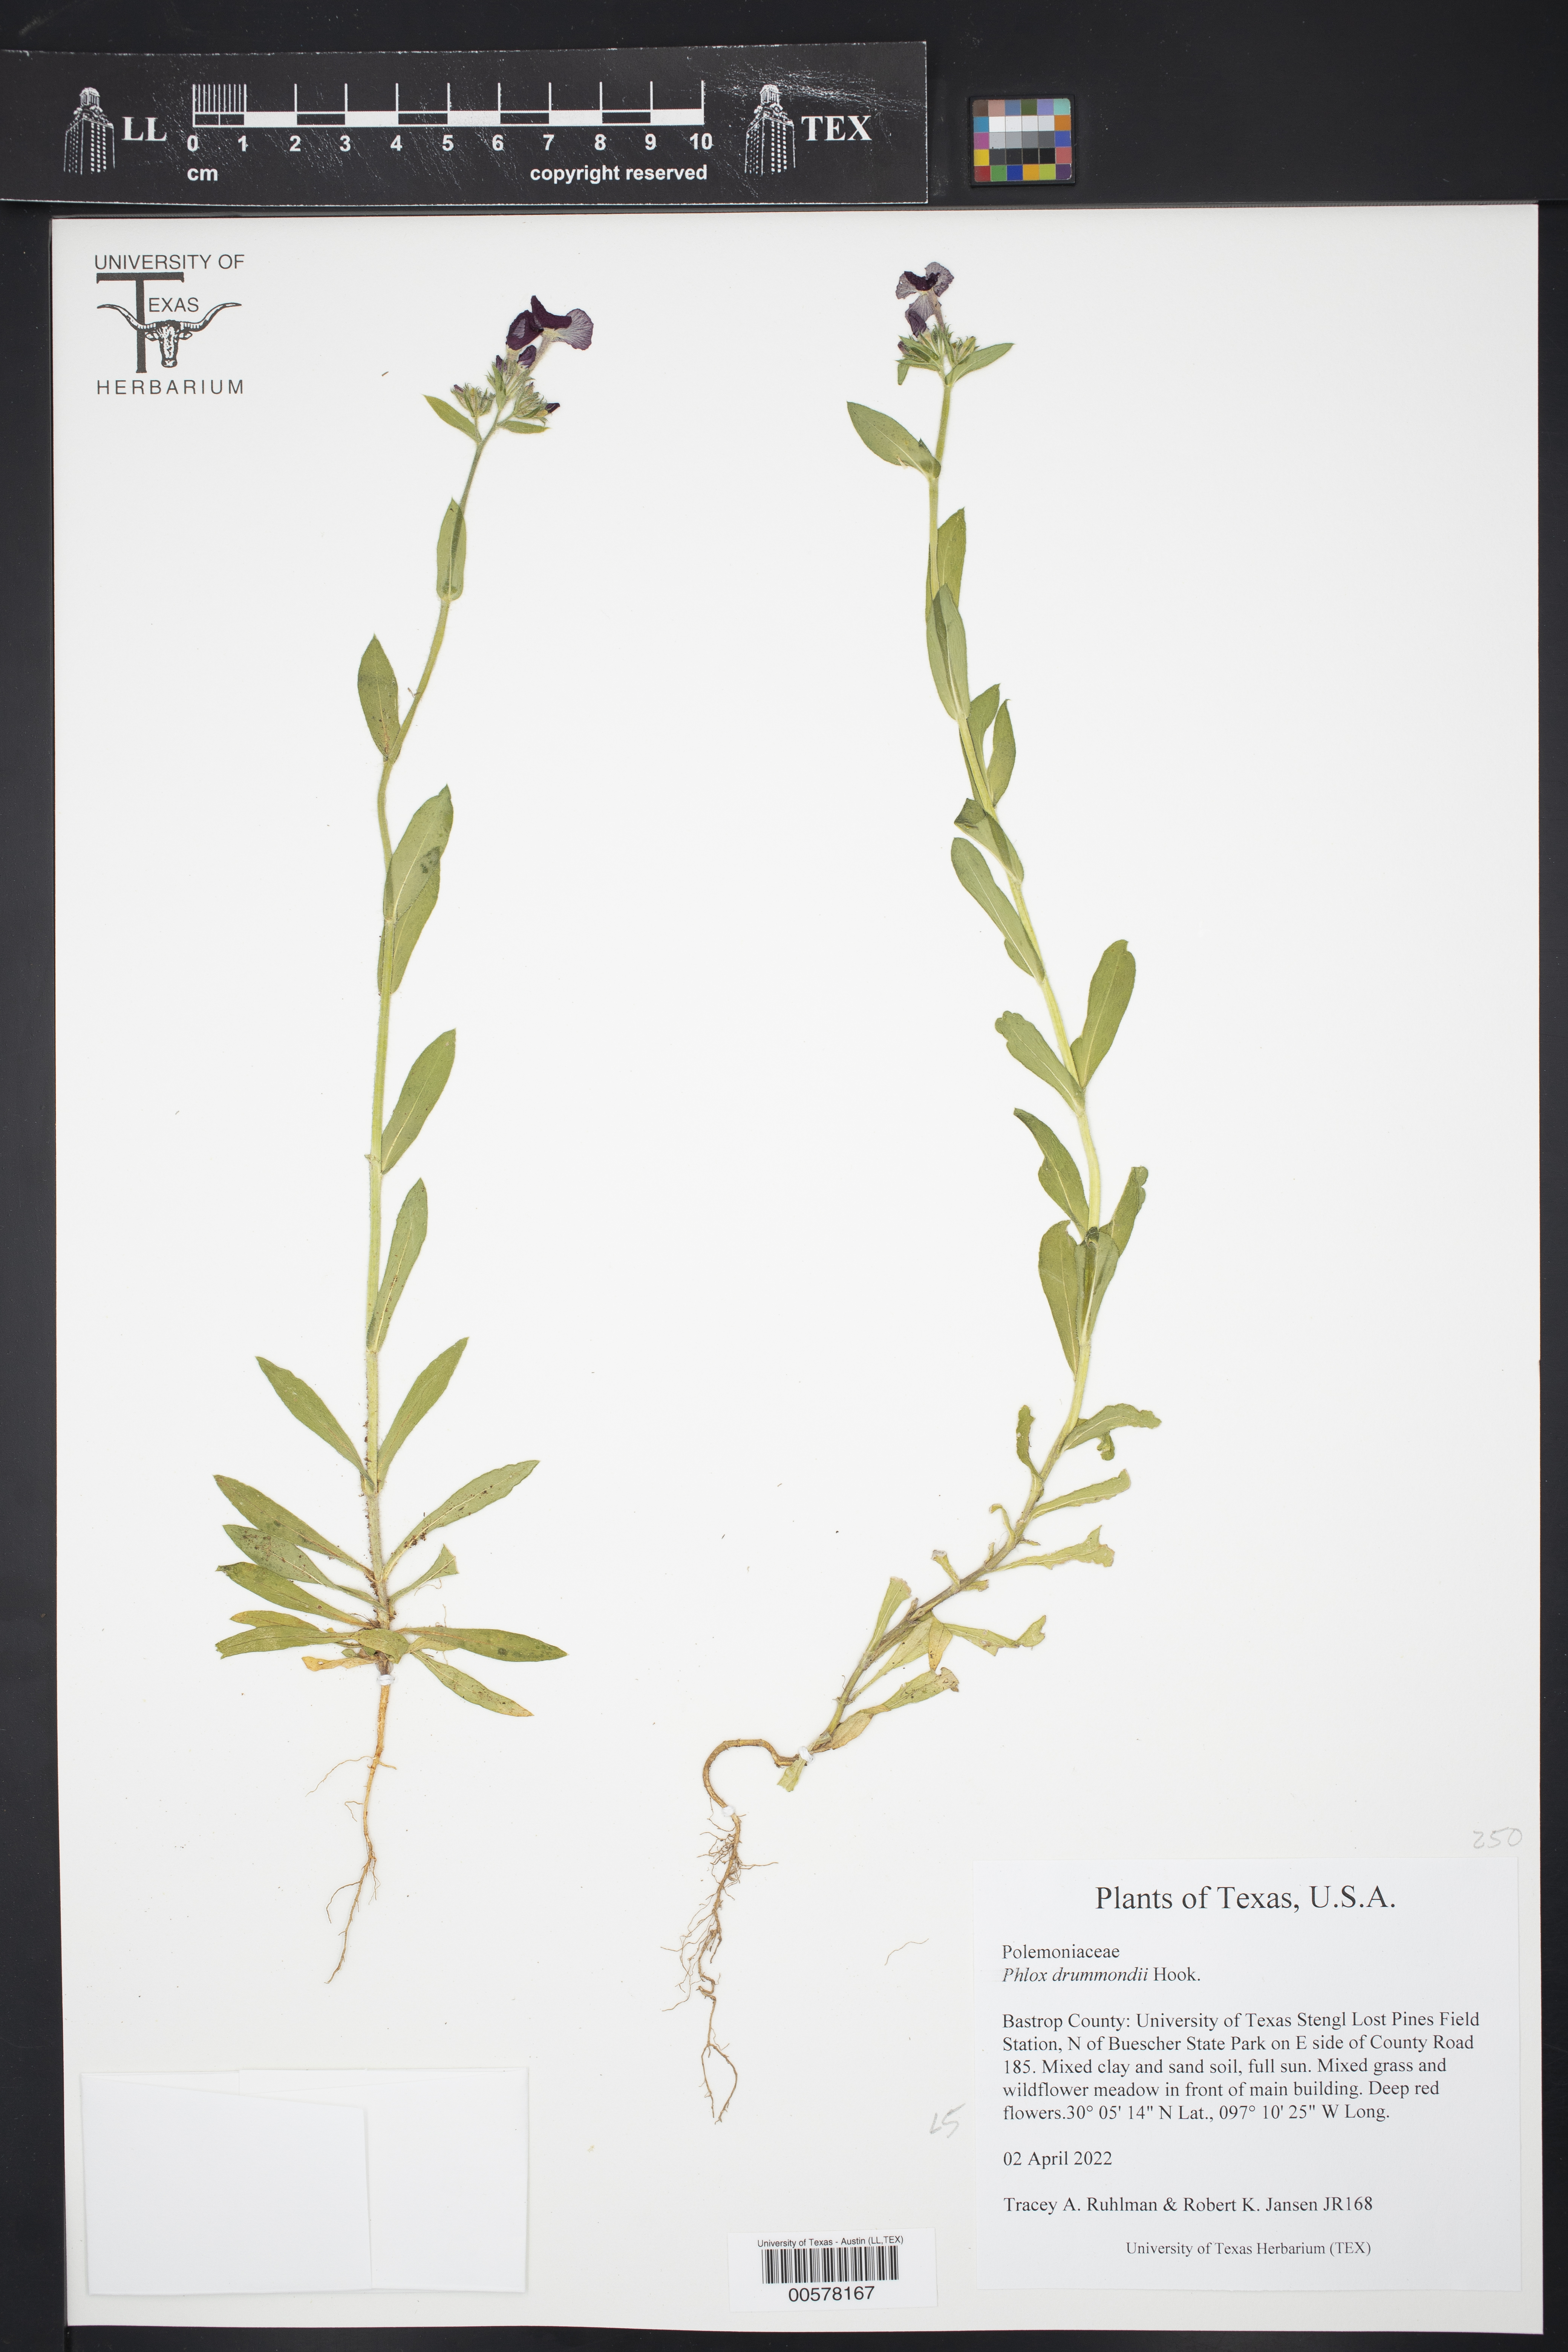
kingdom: Plantae
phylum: Tracheophyta
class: Magnoliopsida
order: Ericales
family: Polemoniaceae
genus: Phlox
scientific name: Phlox drummondii
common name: Drummond's phlox
